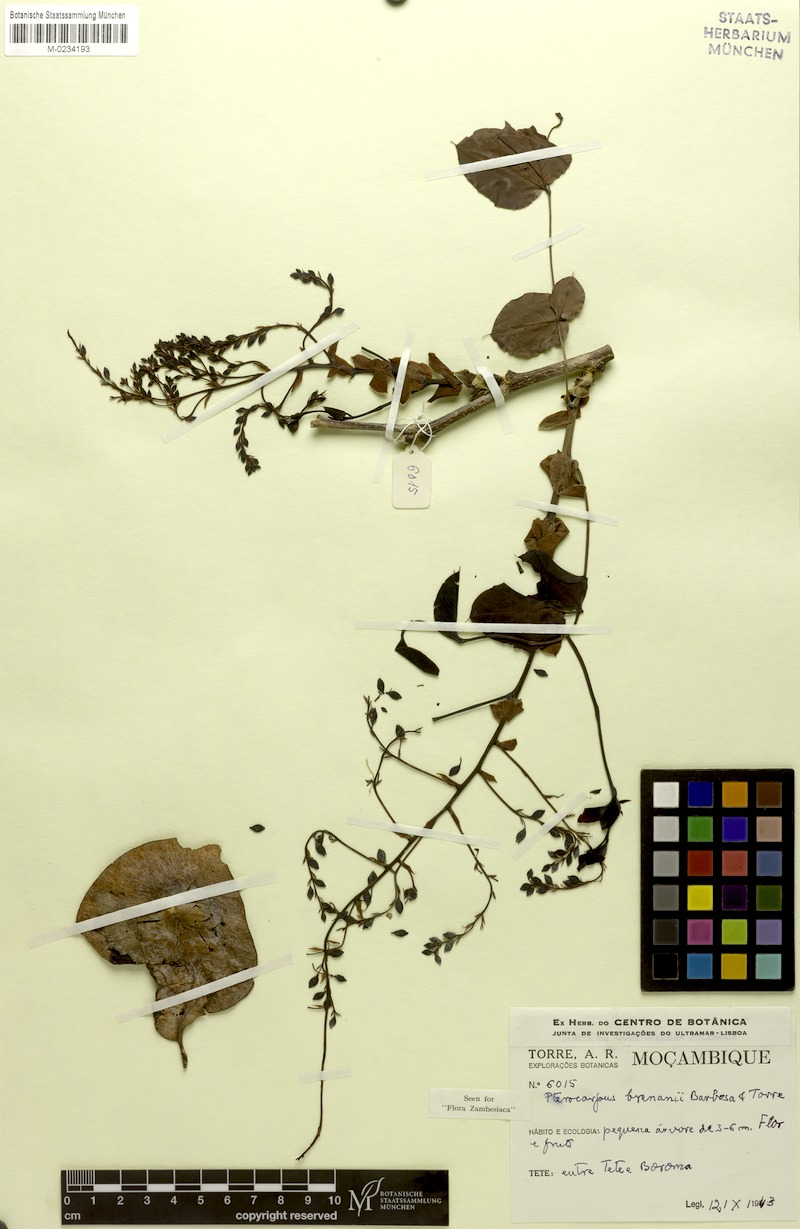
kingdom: Plantae
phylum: Tracheophyta
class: Magnoliopsida
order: Fabales
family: Fabaceae
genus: Pterocarpus
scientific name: Pterocarpus brenanii
